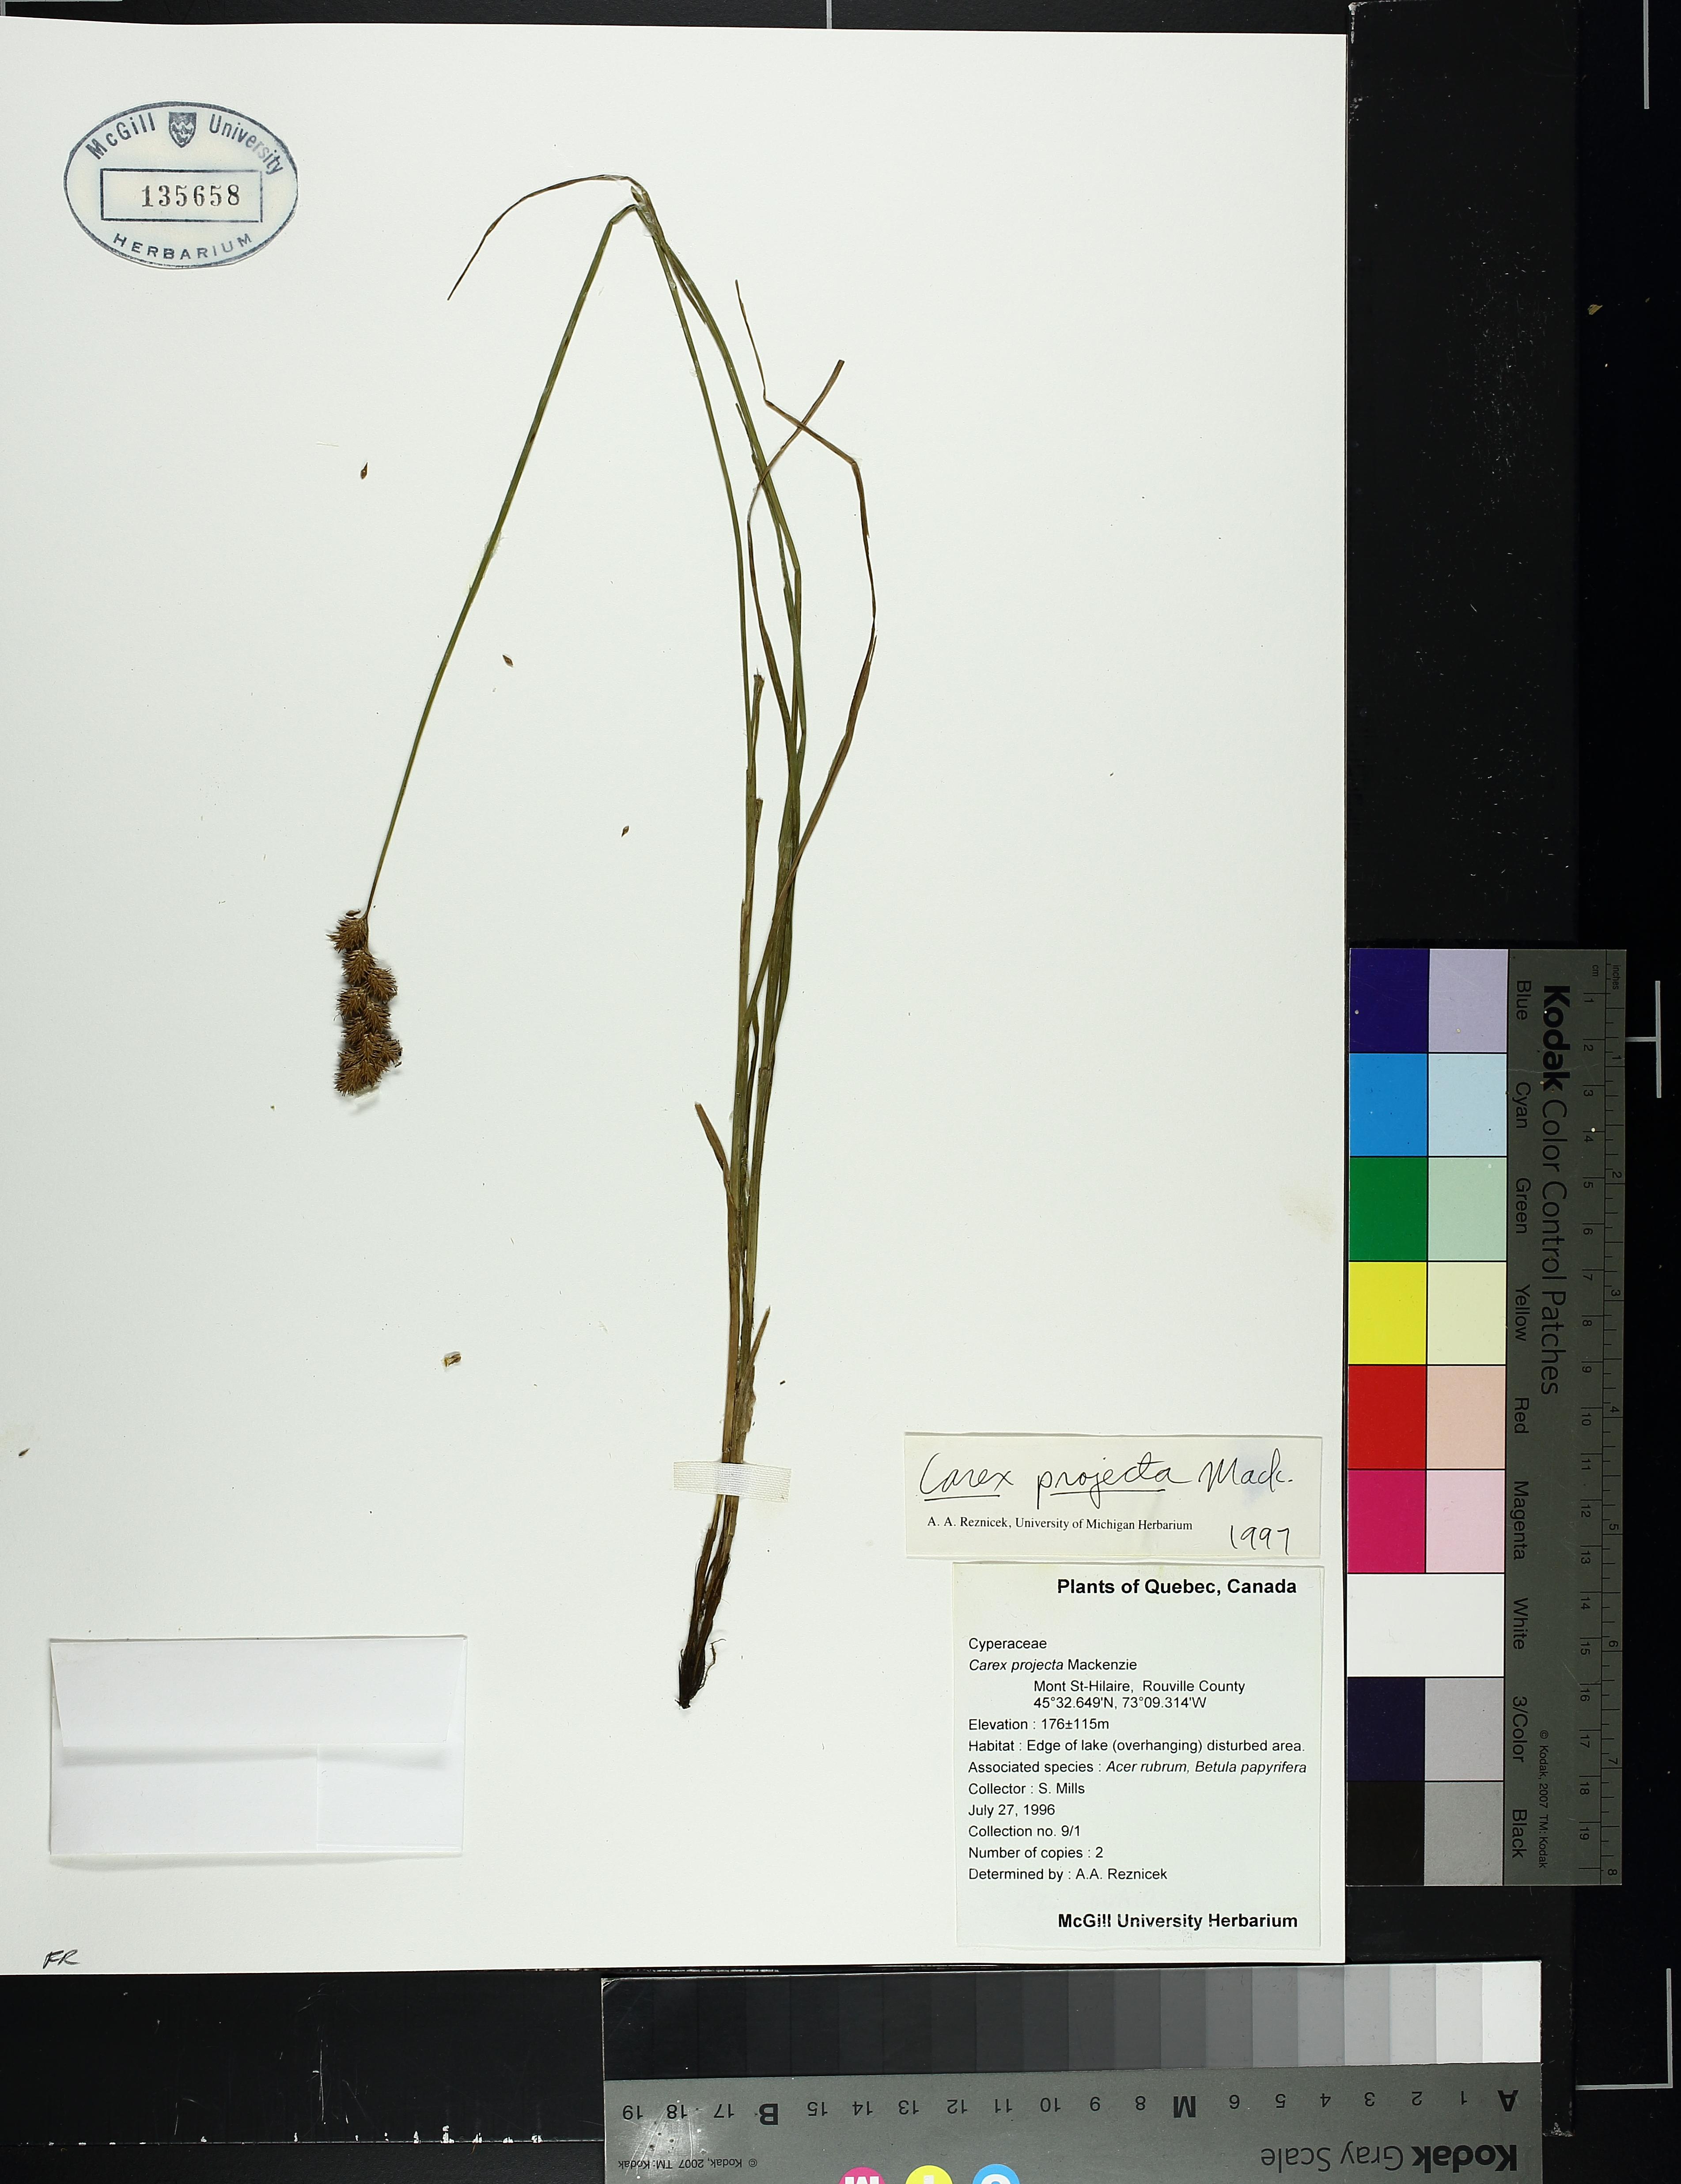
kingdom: Plantae
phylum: Tracheophyta
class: Liliopsida
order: Poales
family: Cyperaceae
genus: Carex
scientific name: Carex projecta
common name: Loose-headed oval sedge
